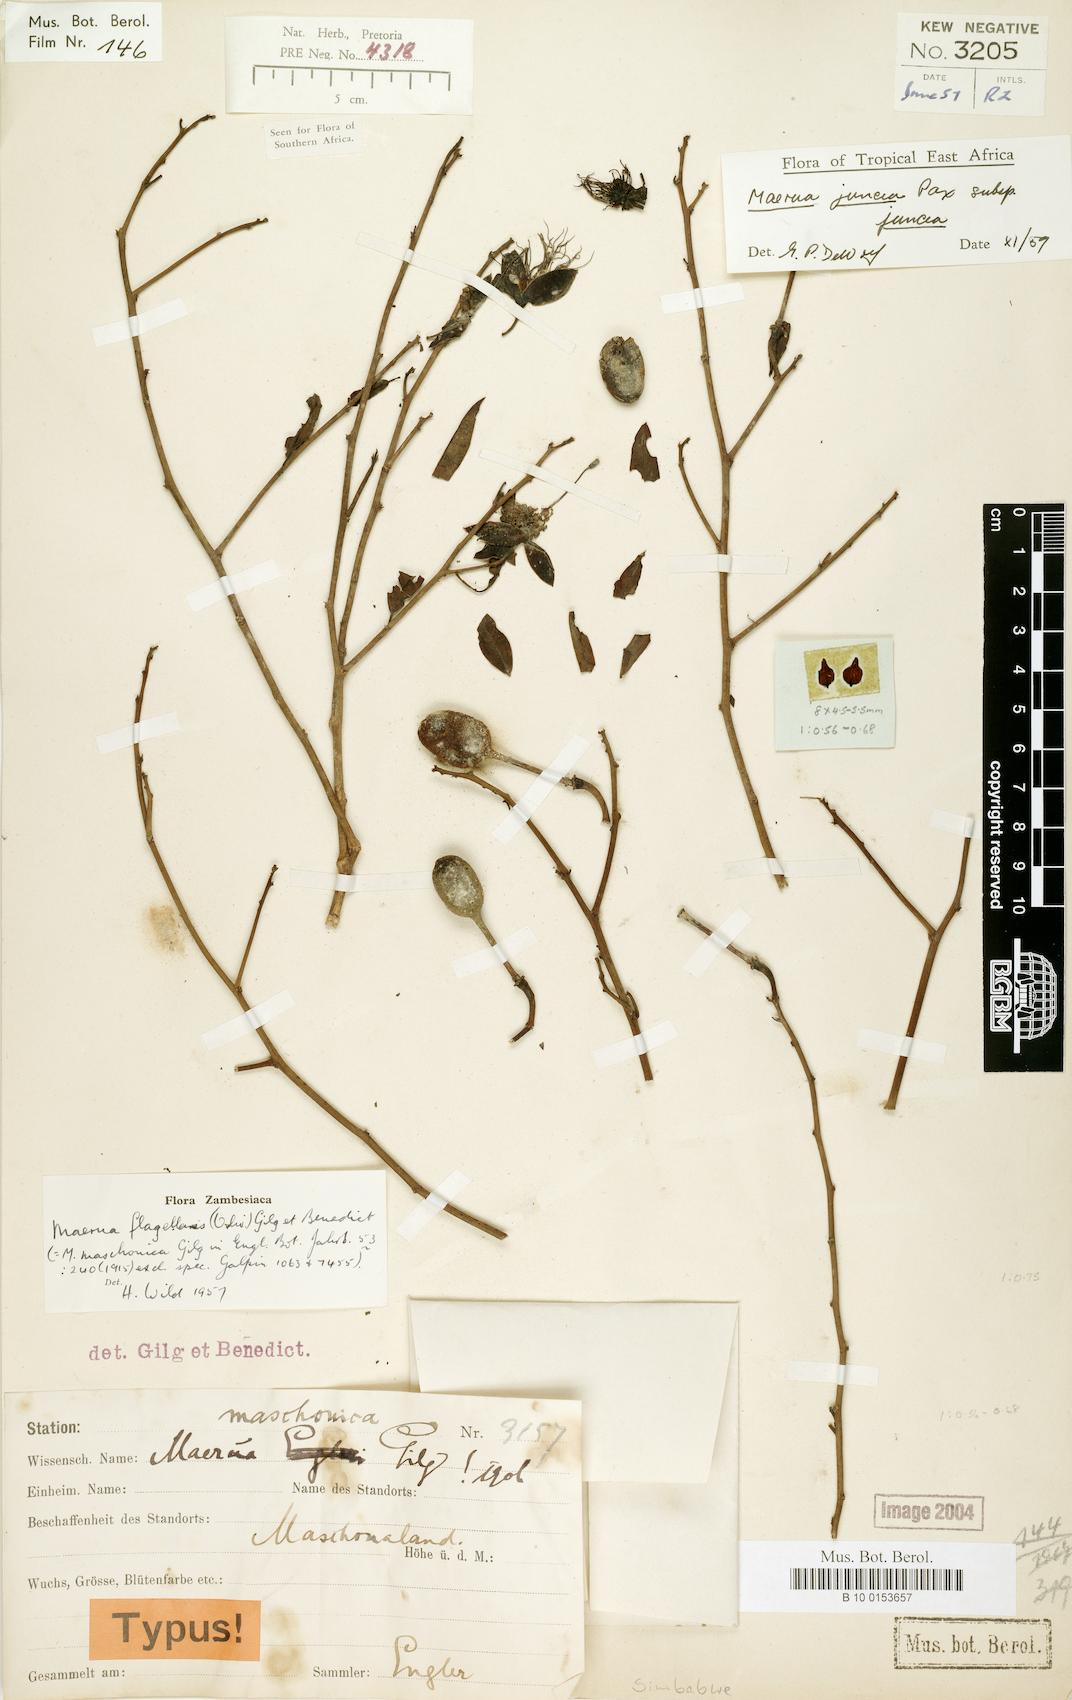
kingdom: Plantae
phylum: Tracheophyta
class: Magnoliopsida
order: Brassicales
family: Capparaceae
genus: Maerua
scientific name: Maerua juncea
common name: Rough-skinned bush cherry
